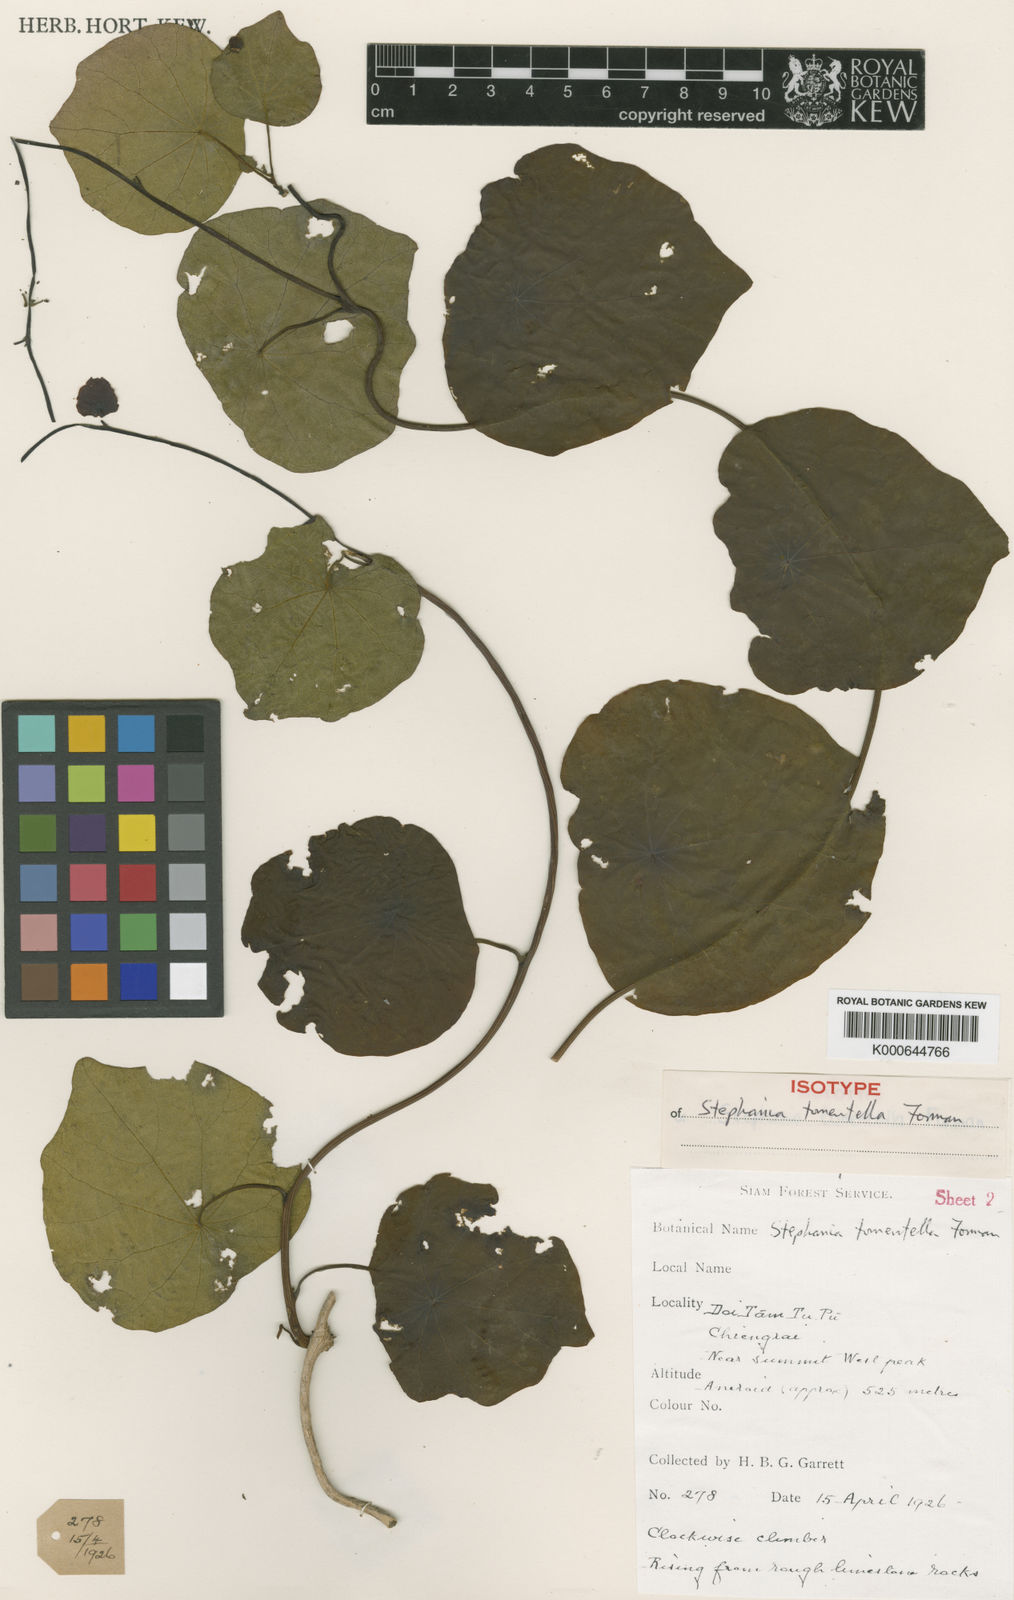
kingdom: Plantae
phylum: Tracheophyta
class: Magnoliopsida
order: Ranunculales
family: Menispermaceae
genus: Stephania
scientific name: Stephania tomentella
